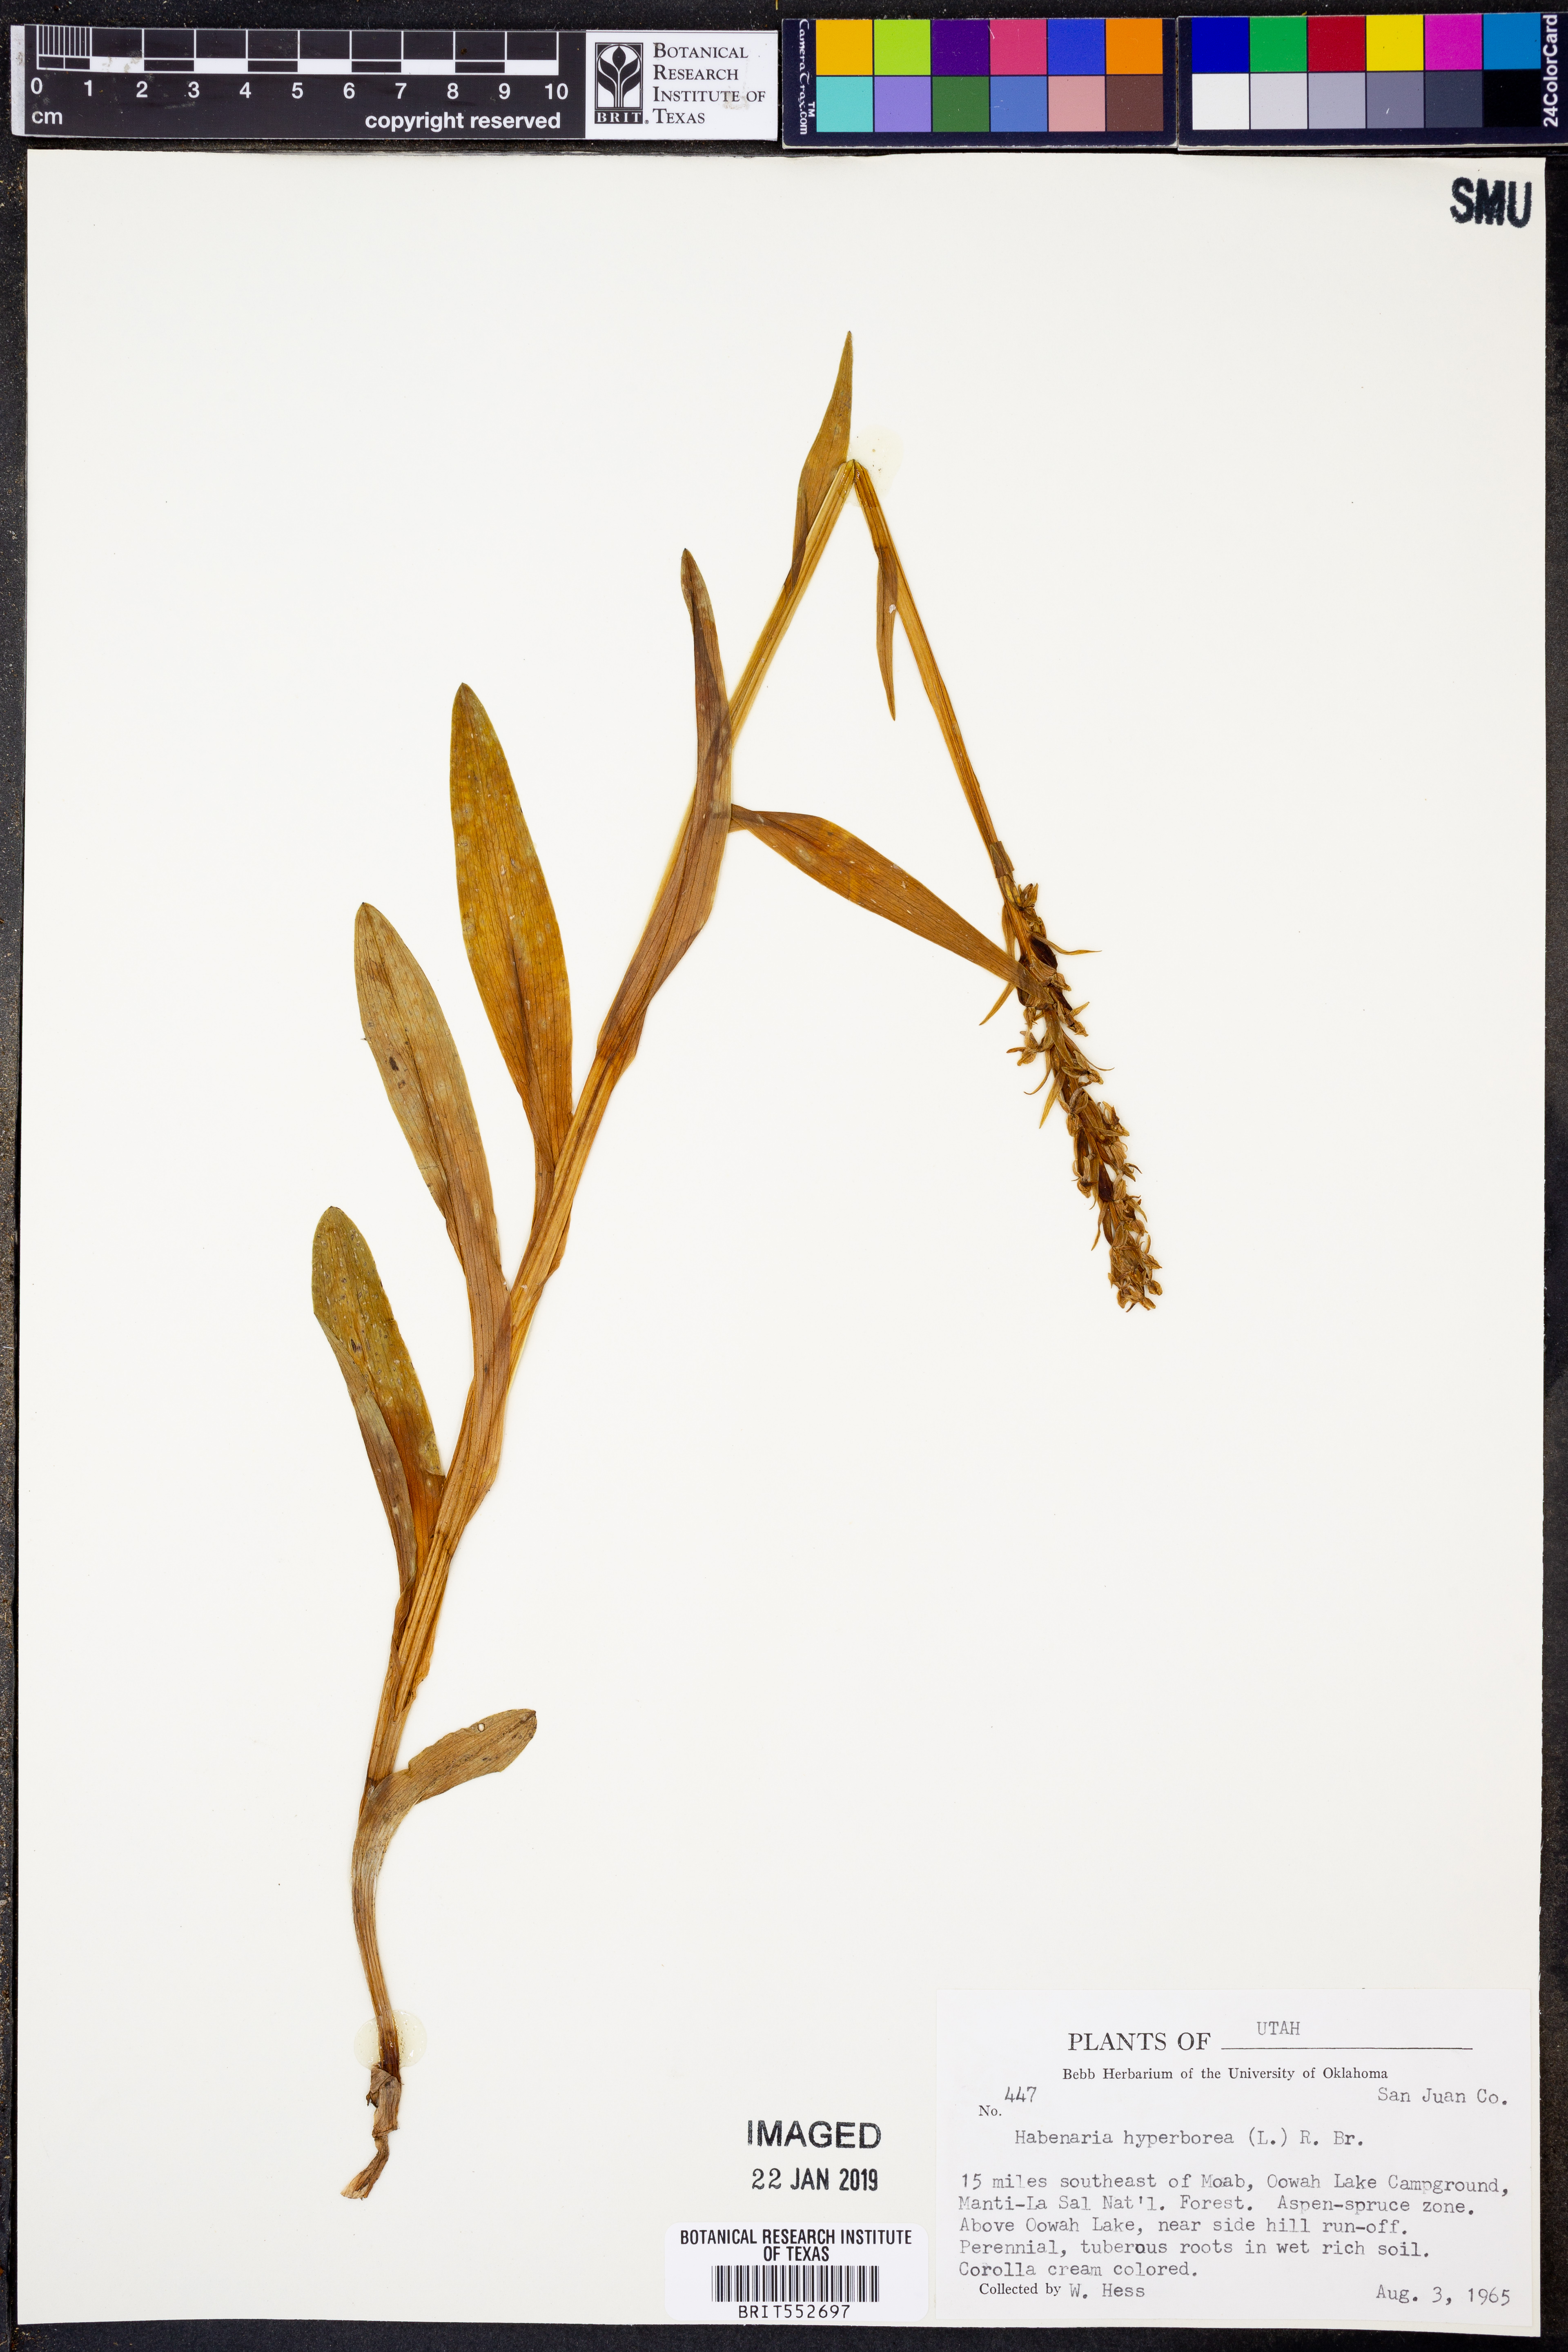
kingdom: Plantae
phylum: Tracheophyta
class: Liliopsida
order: Asparagales
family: Orchidaceae
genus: Platanthera
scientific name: Platanthera hyperborea
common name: Northern green orchid
